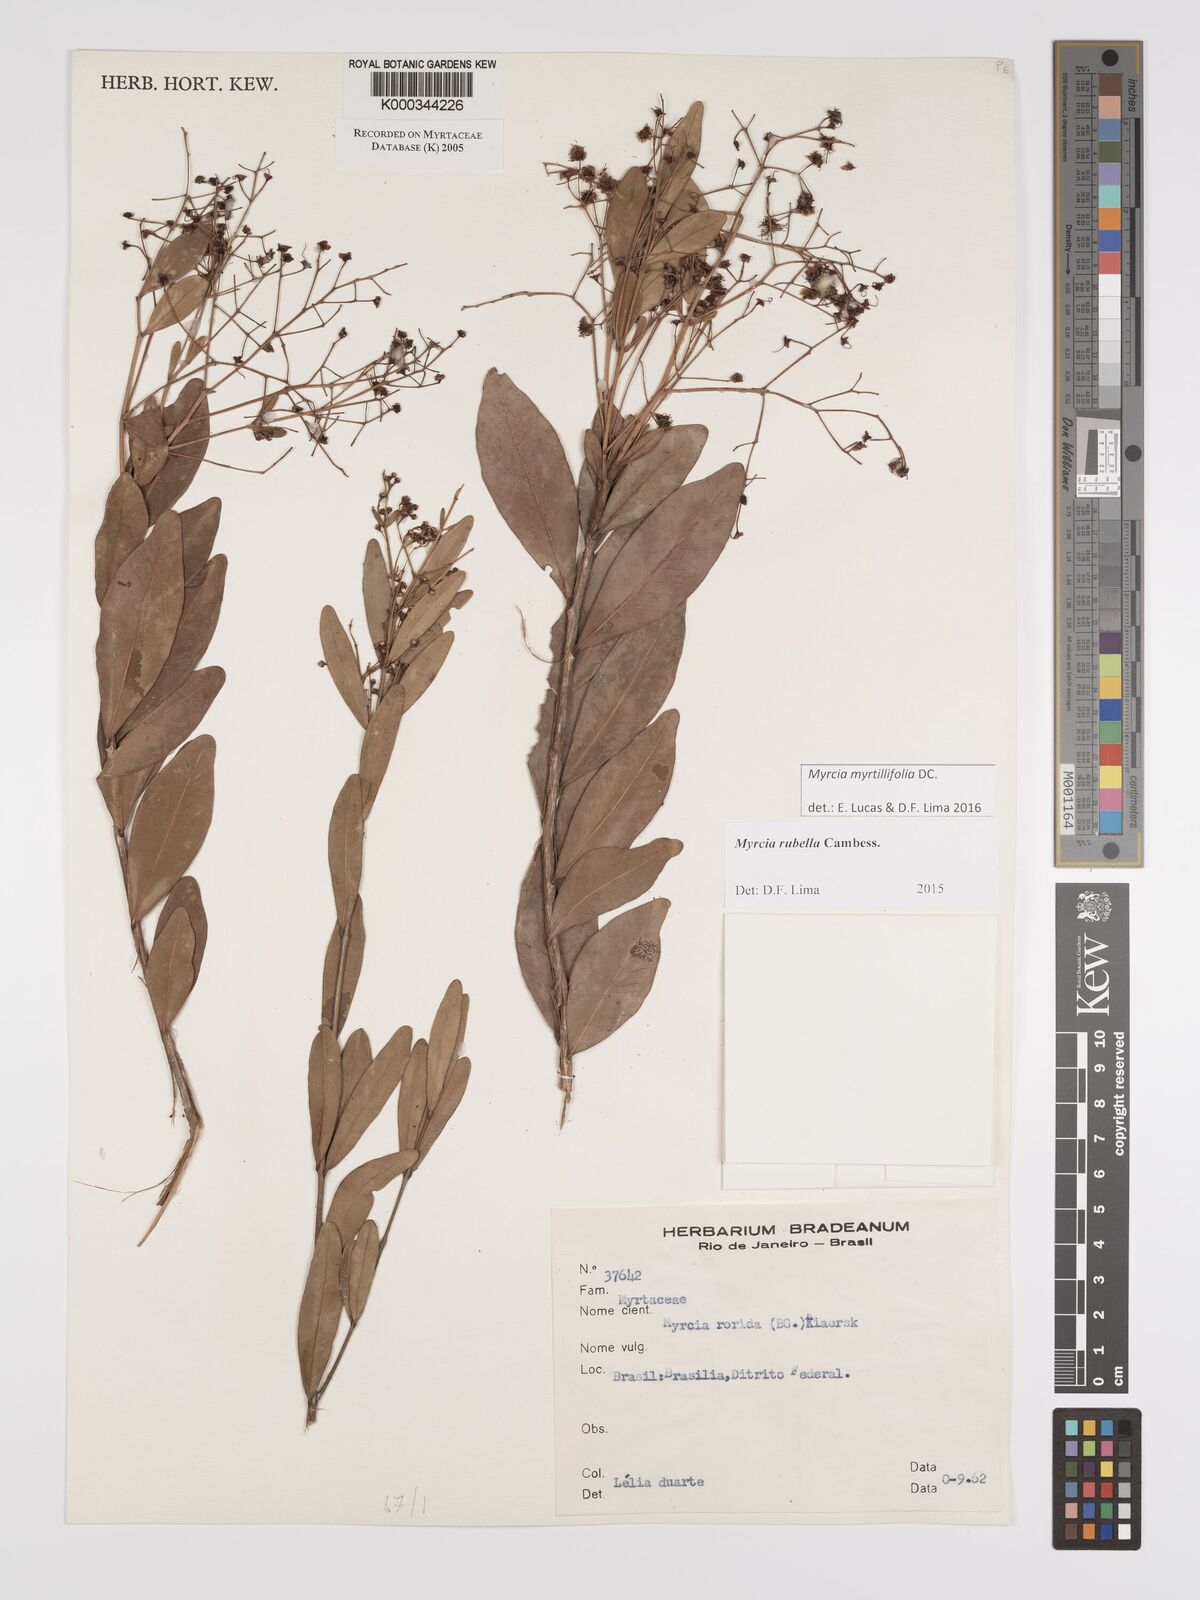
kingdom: Plantae
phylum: Tracheophyta
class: Magnoliopsida
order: Myrtales
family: Myrtaceae
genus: Myrcia
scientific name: Myrcia guianensis
